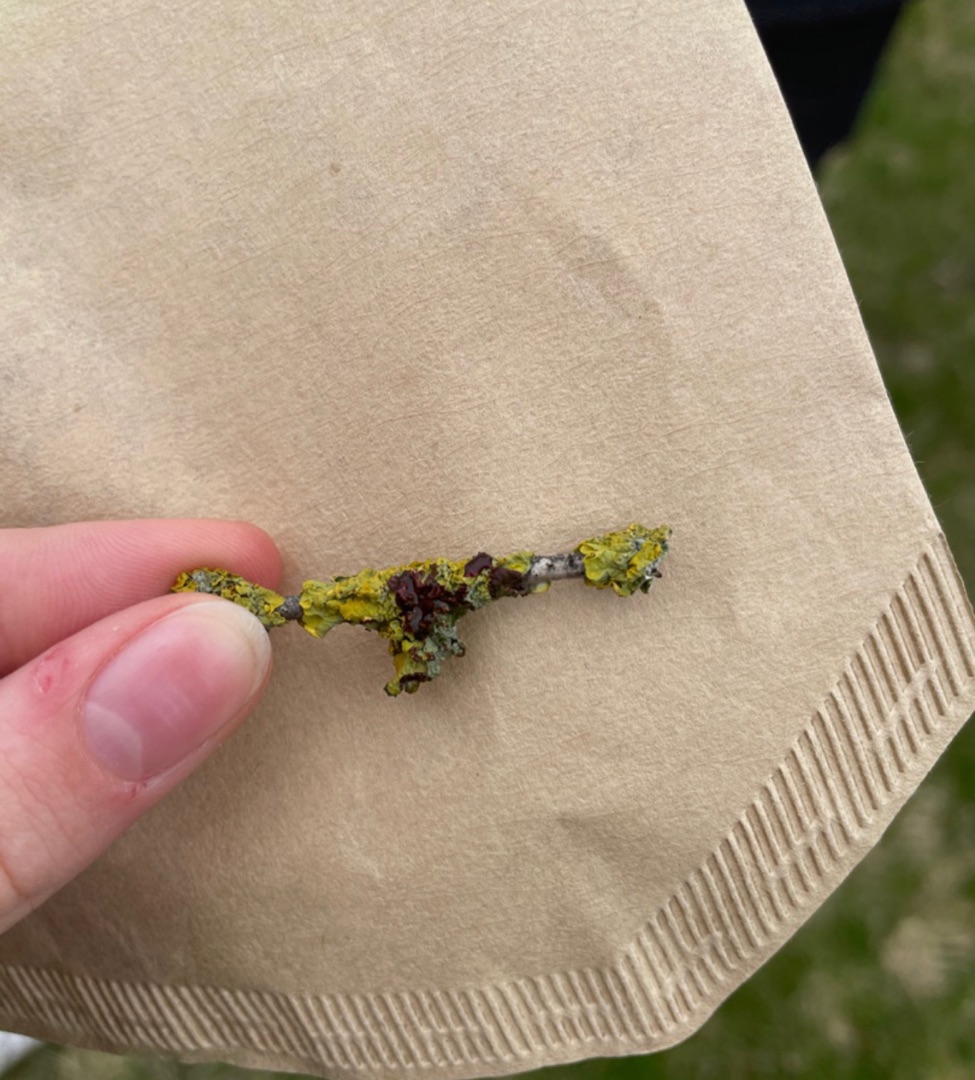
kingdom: Fungi
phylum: Ascomycota
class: Lecanoromycetes
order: Teloschistales
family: Teloschistaceae
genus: Xanthoria
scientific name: Xanthoria parietina
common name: Almindelig væggelav
